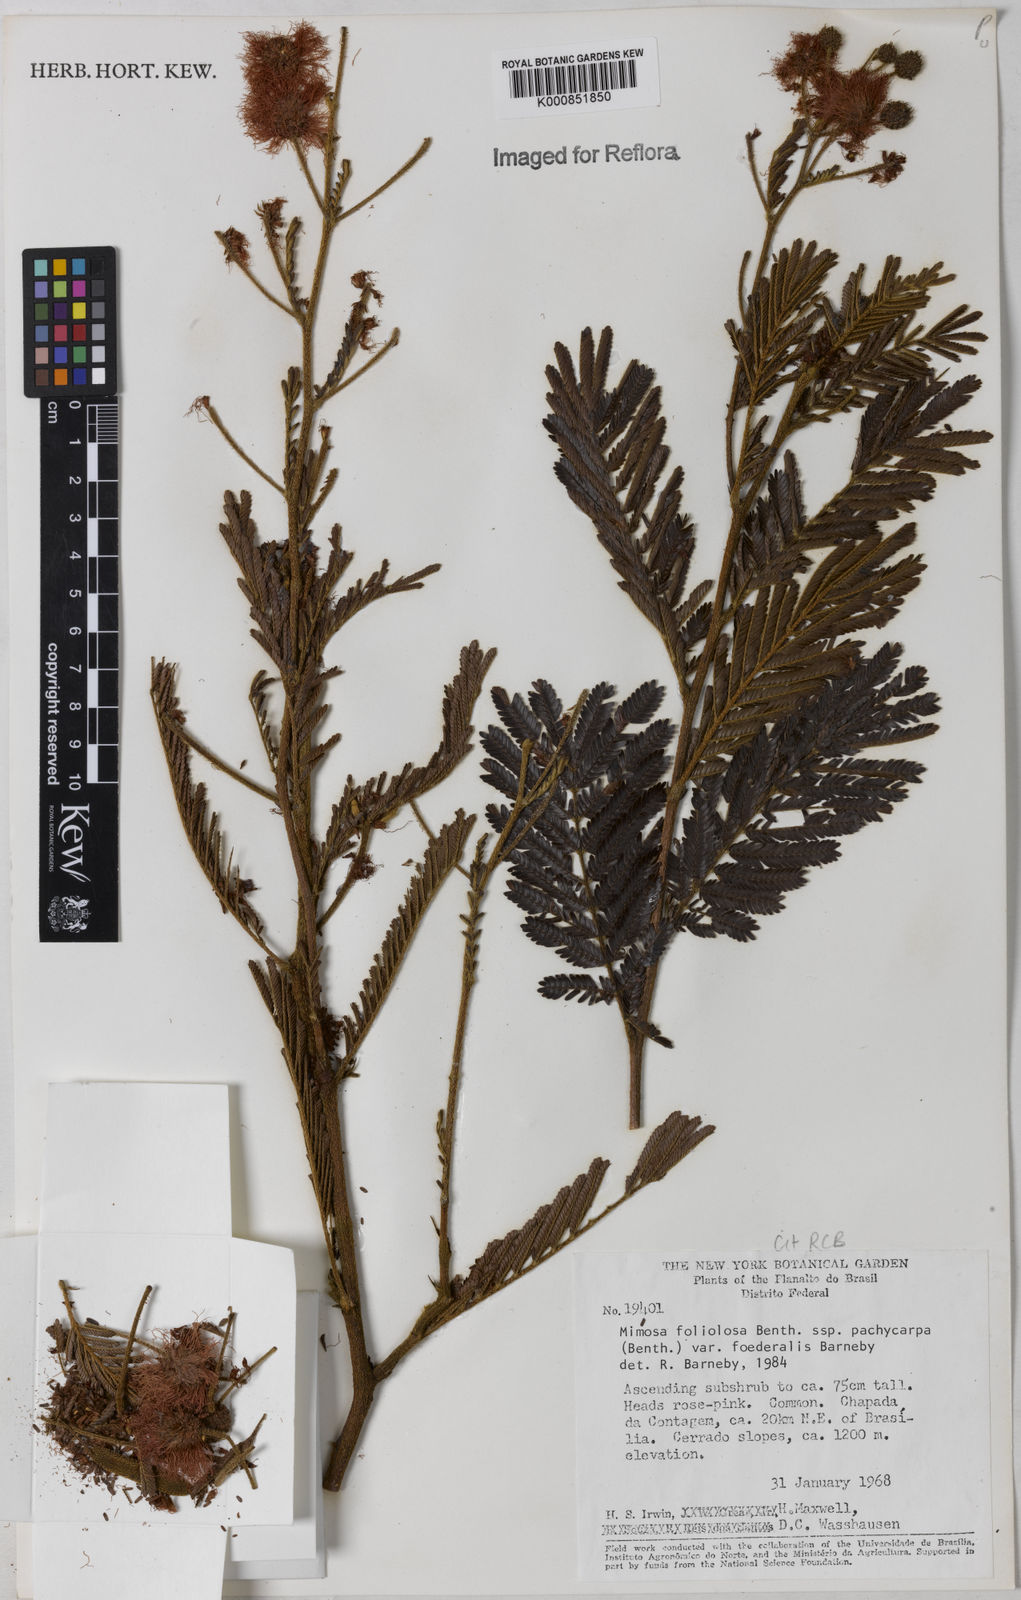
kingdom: Plantae
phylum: Tracheophyta
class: Magnoliopsida
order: Fabales
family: Fabaceae
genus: Mimosa
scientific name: Mimosa foliolosa
